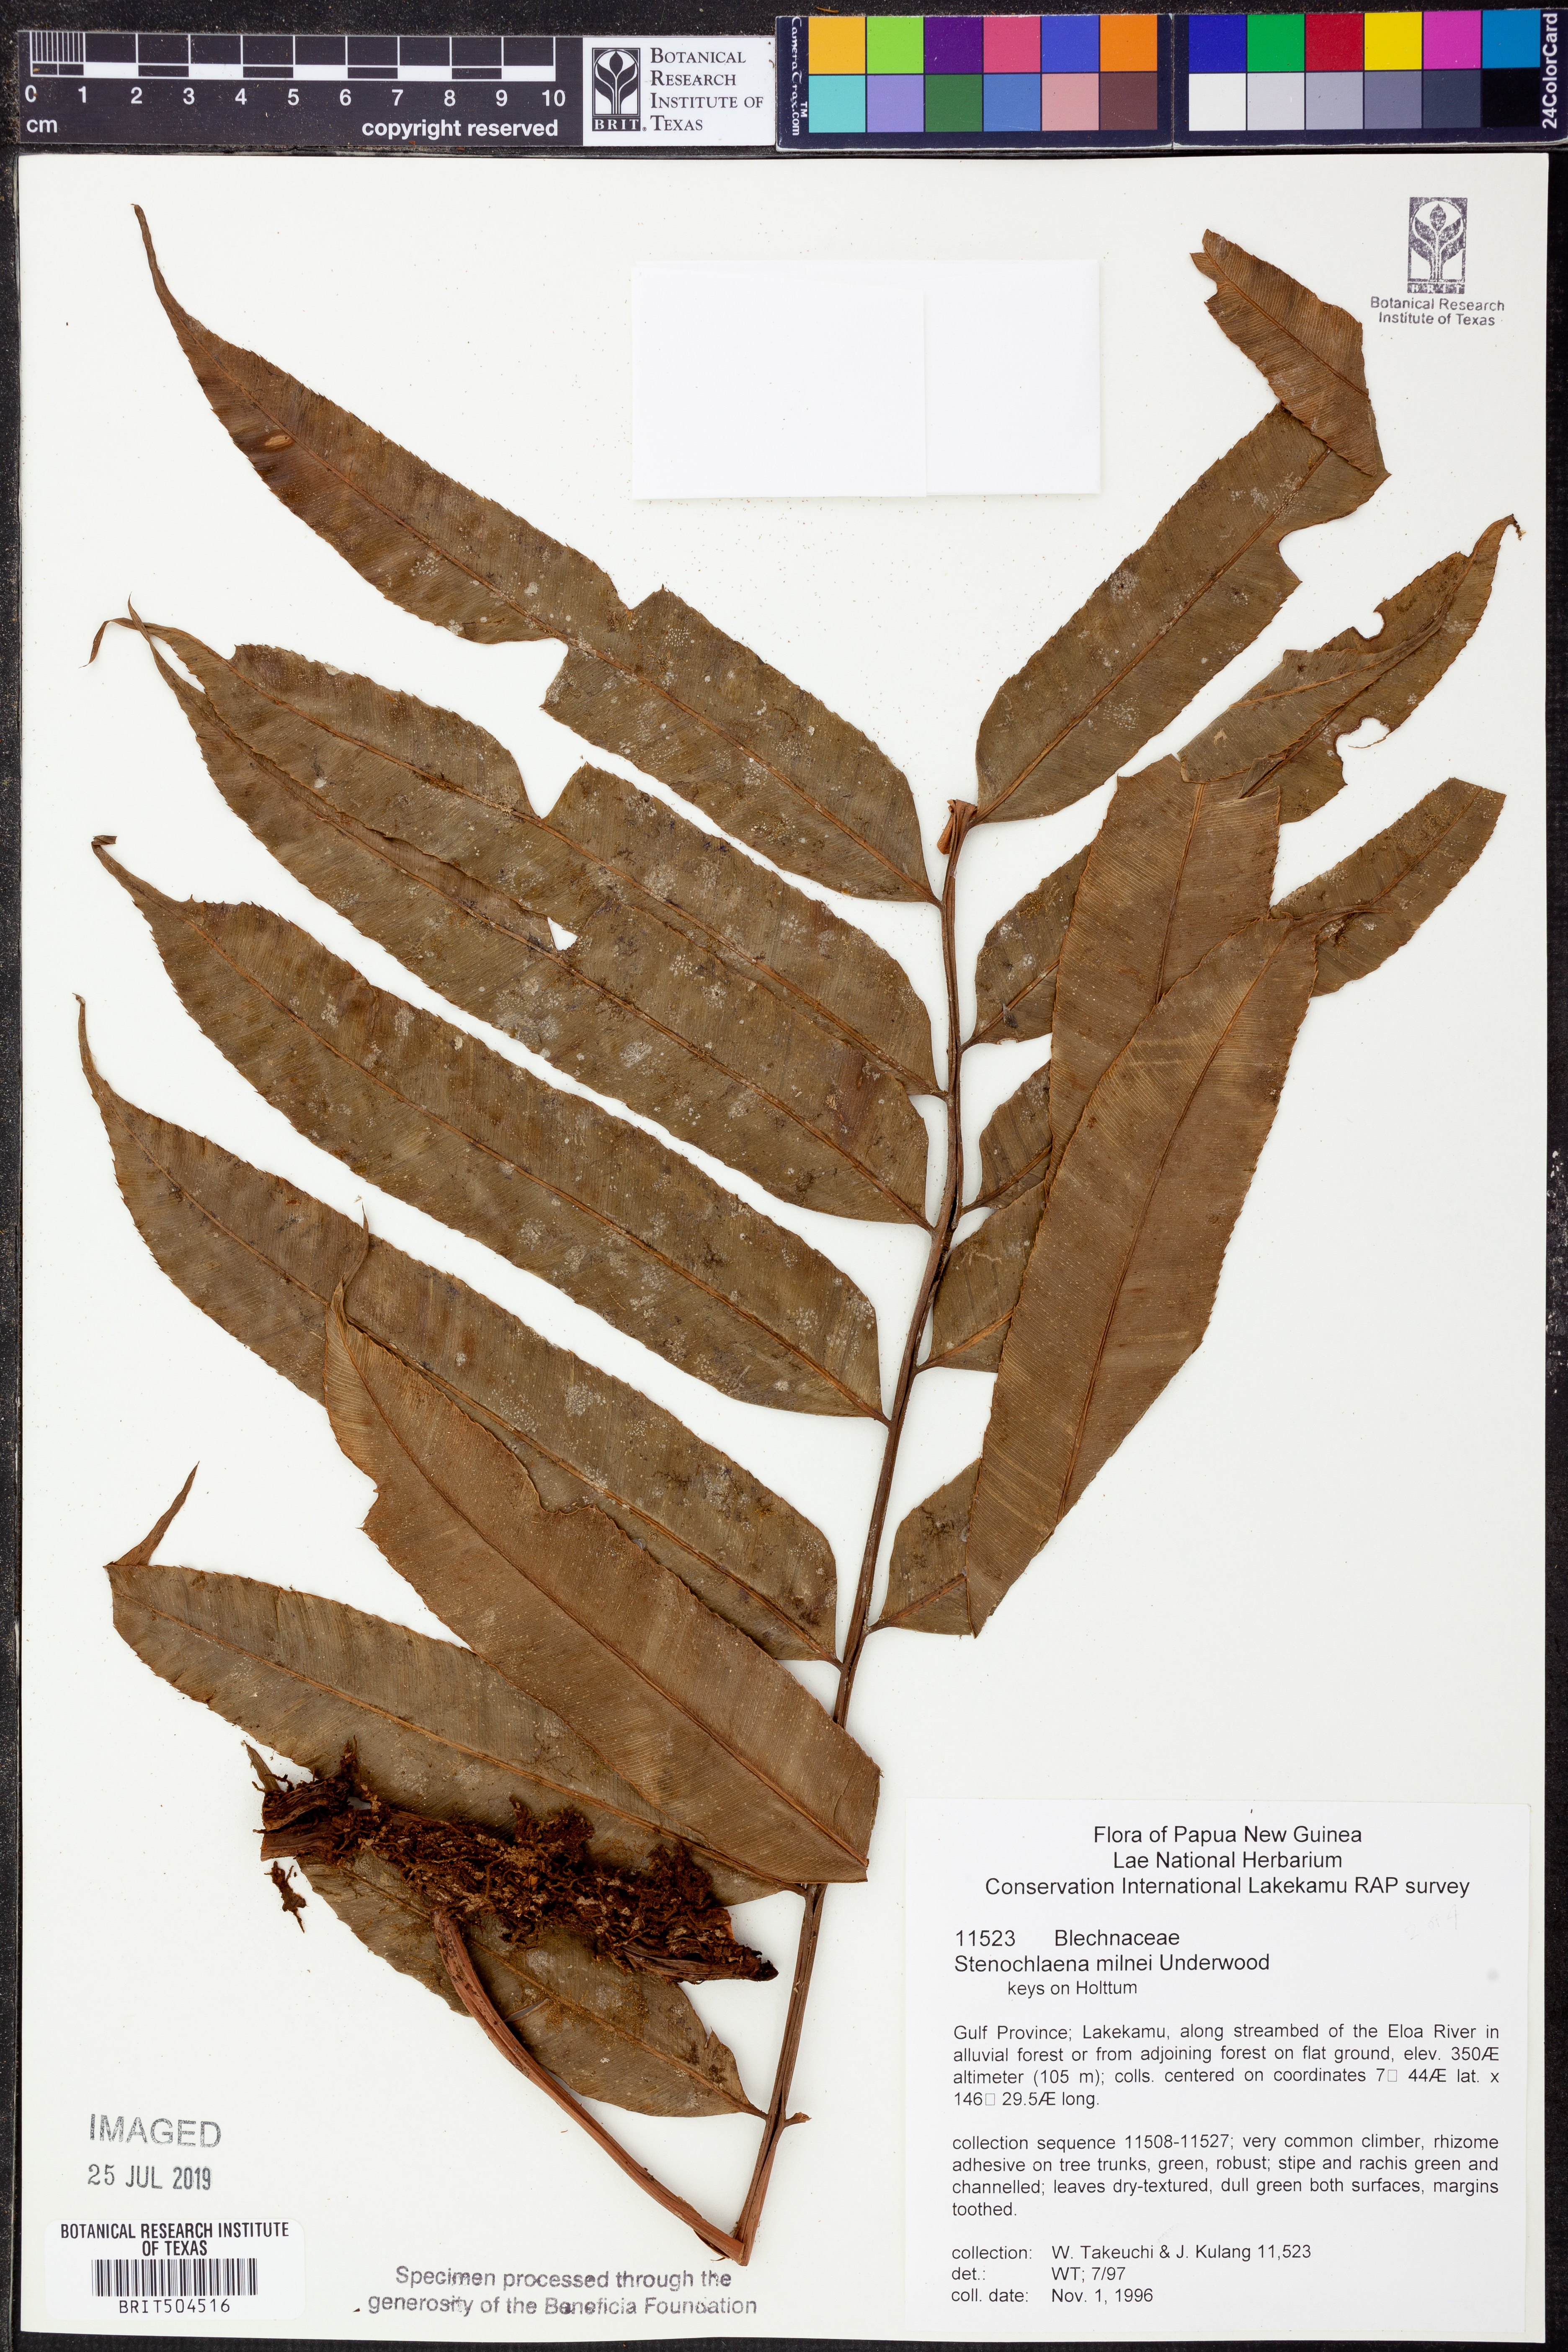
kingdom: Plantae
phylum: Tracheophyta
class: Polypodiopsida
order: Polypodiales
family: Blechnaceae
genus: Stenochlaena
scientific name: Stenochlaena milnei
